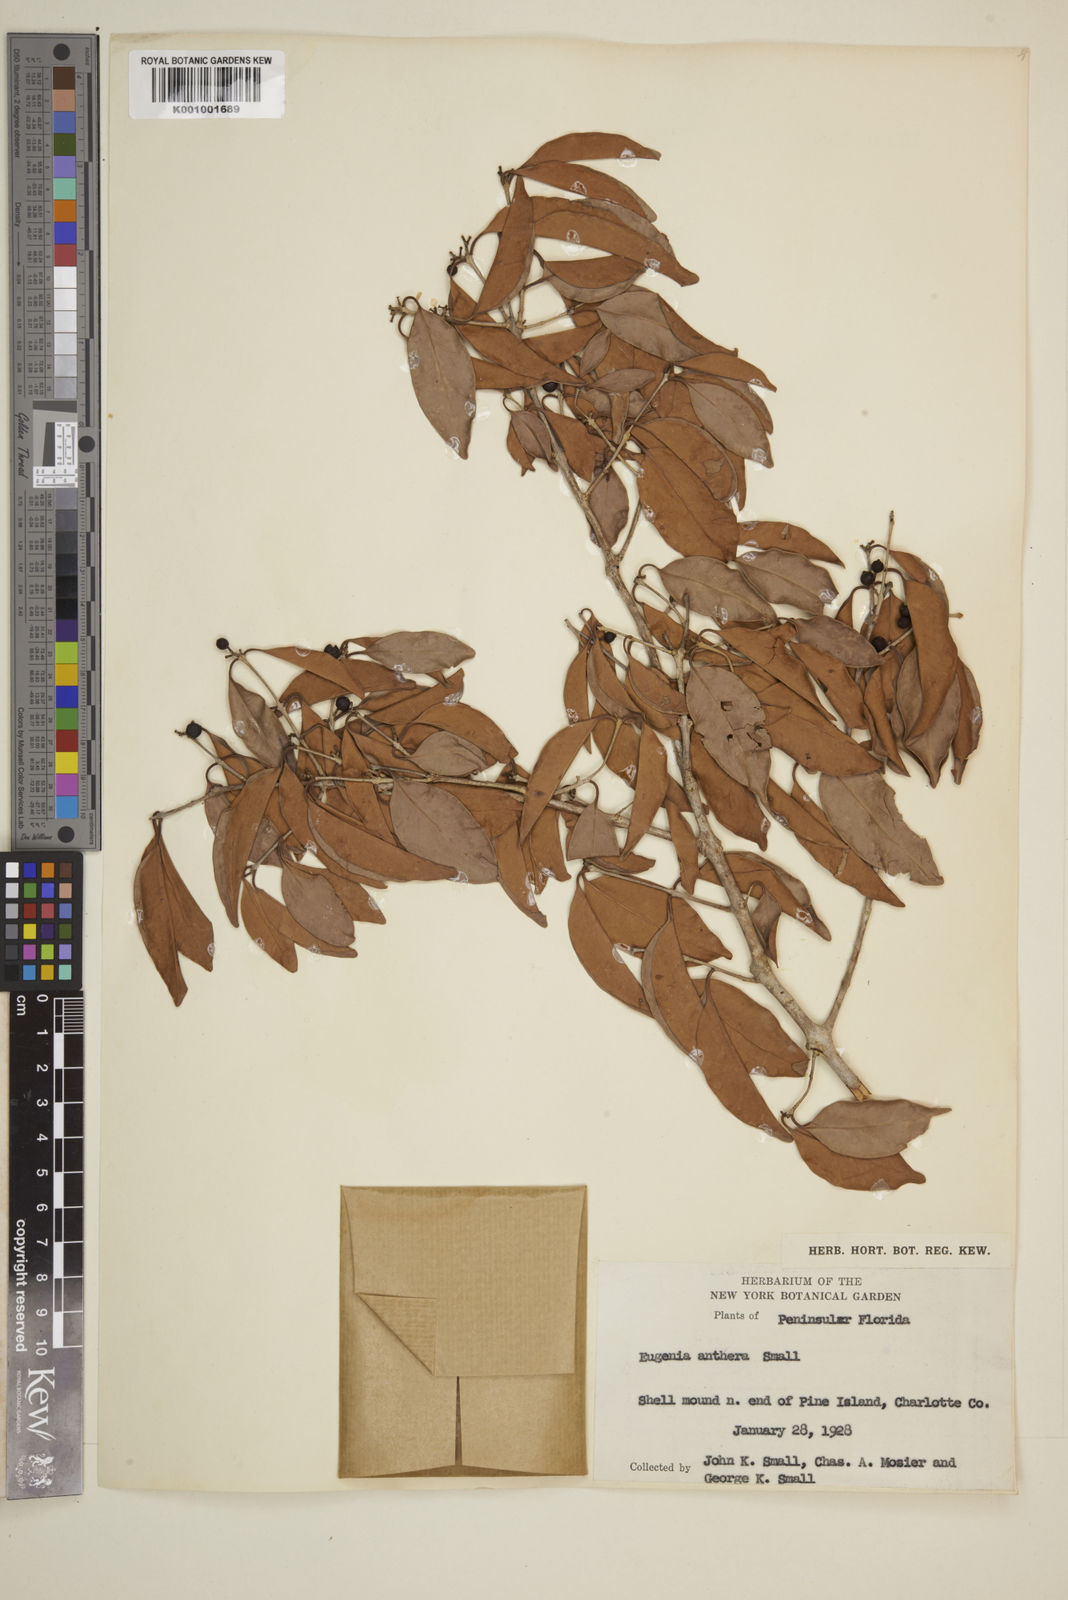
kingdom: Plantae
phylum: Tracheophyta
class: Magnoliopsida
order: Myrtales
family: Myrtaceae
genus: Eugenia
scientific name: Eugenia axillaris
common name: Choaky berry
